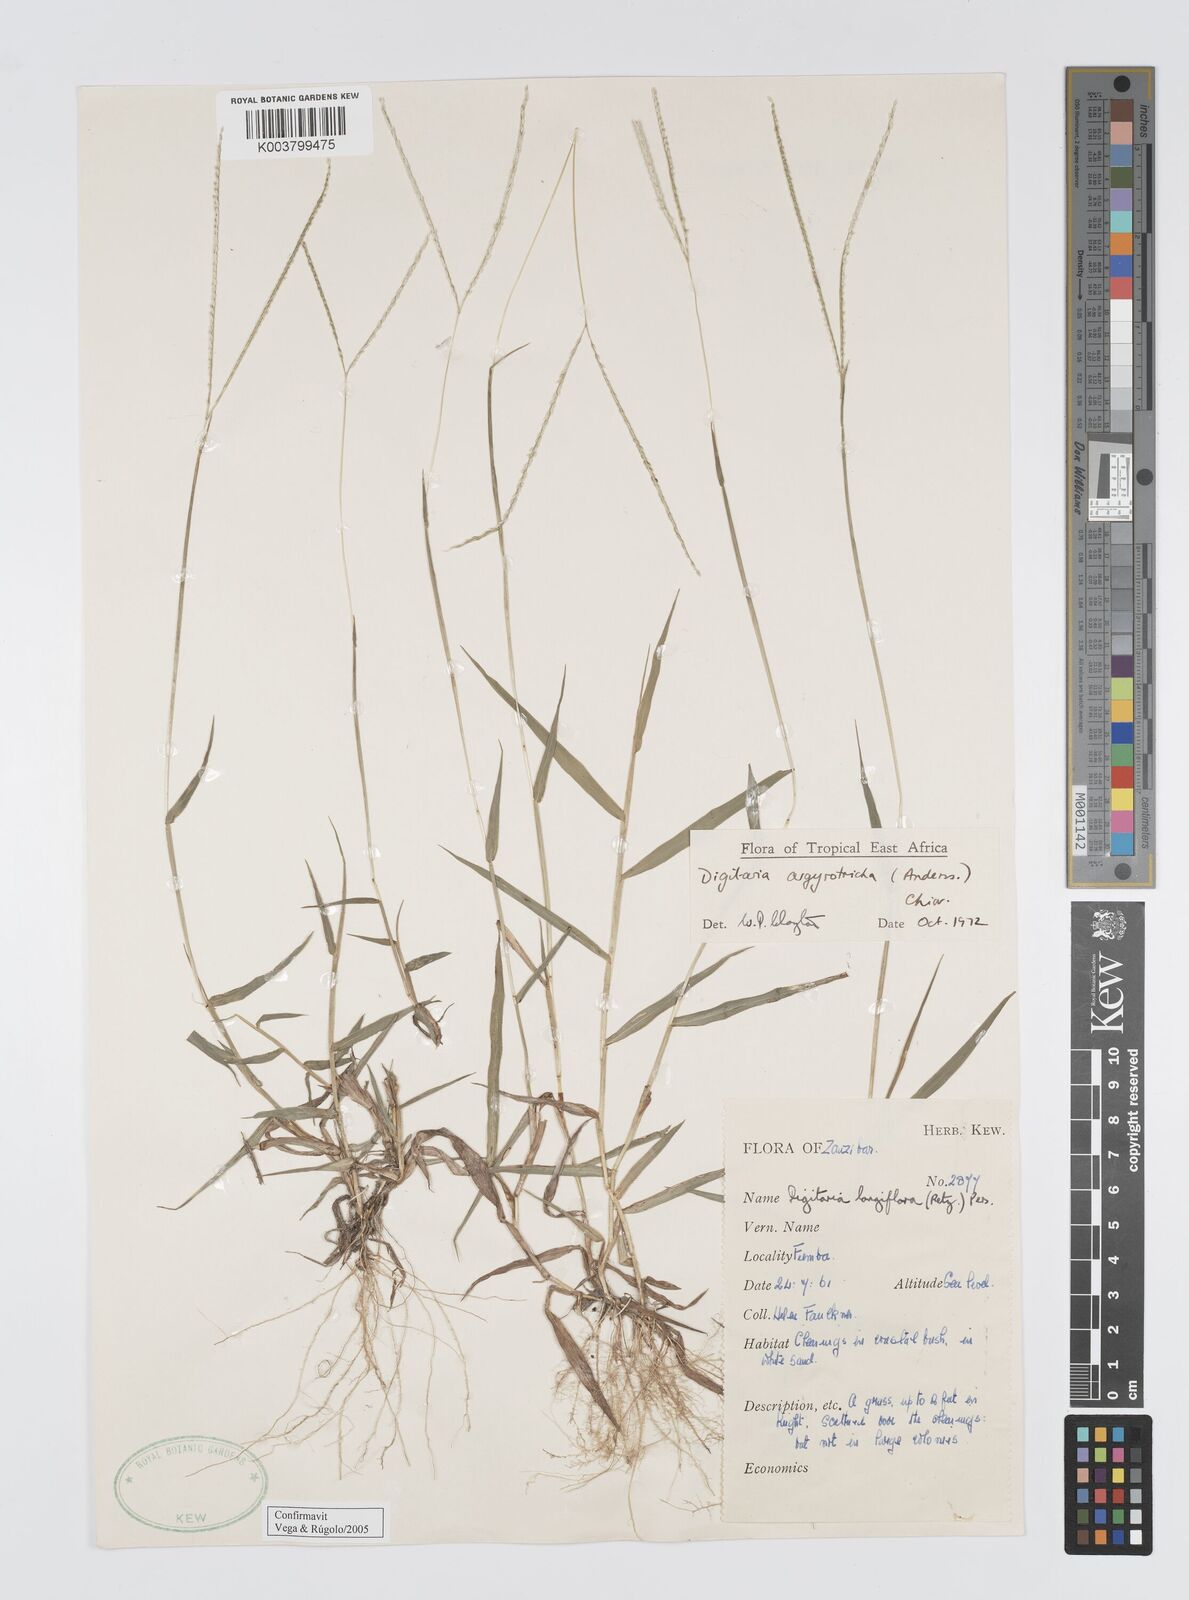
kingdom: Plantae
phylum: Tracheophyta
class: Liliopsida
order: Poales
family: Poaceae
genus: Digitaria
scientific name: Digitaria argyrotricha
